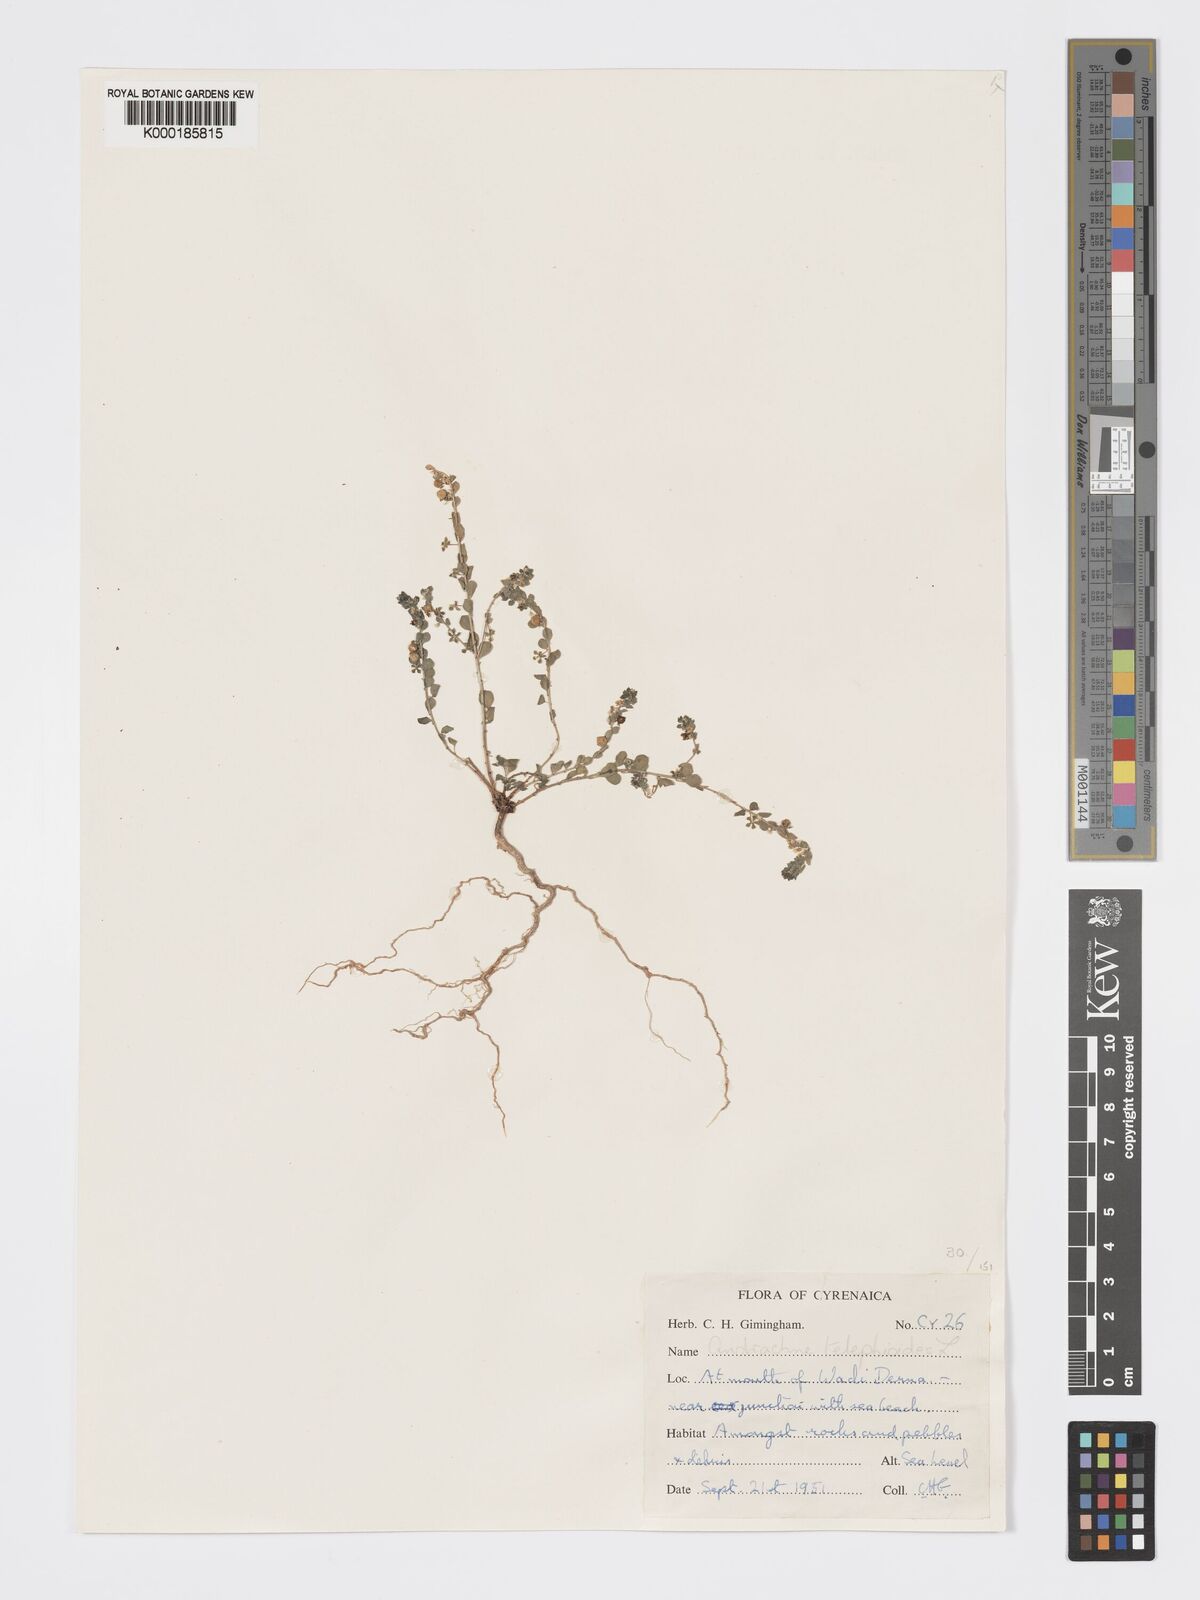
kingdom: Plantae
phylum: Tracheophyta
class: Magnoliopsida
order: Malpighiales
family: Phyllanthaceae
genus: Andrachne
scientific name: Andrachne telephioides
